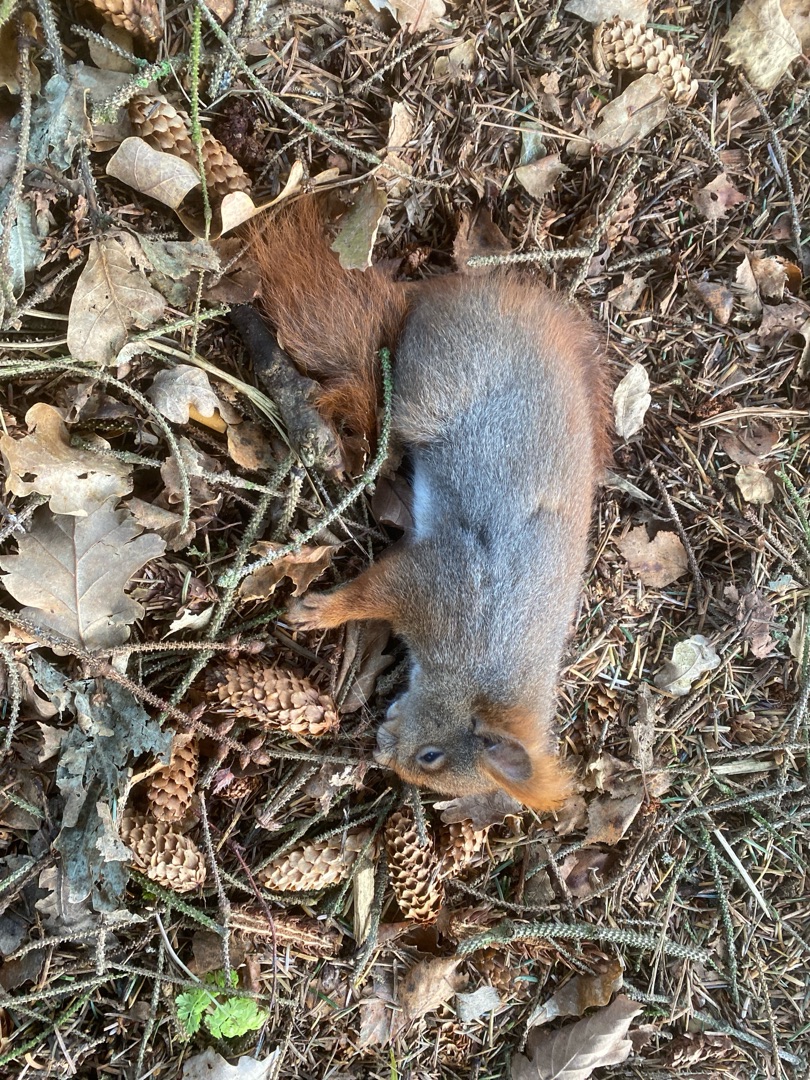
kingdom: Animalia
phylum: Chordata
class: Mammalia
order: Rodentia
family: Sciuridae
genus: Sciurus
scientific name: Sciurus vulgaris
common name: Egern
